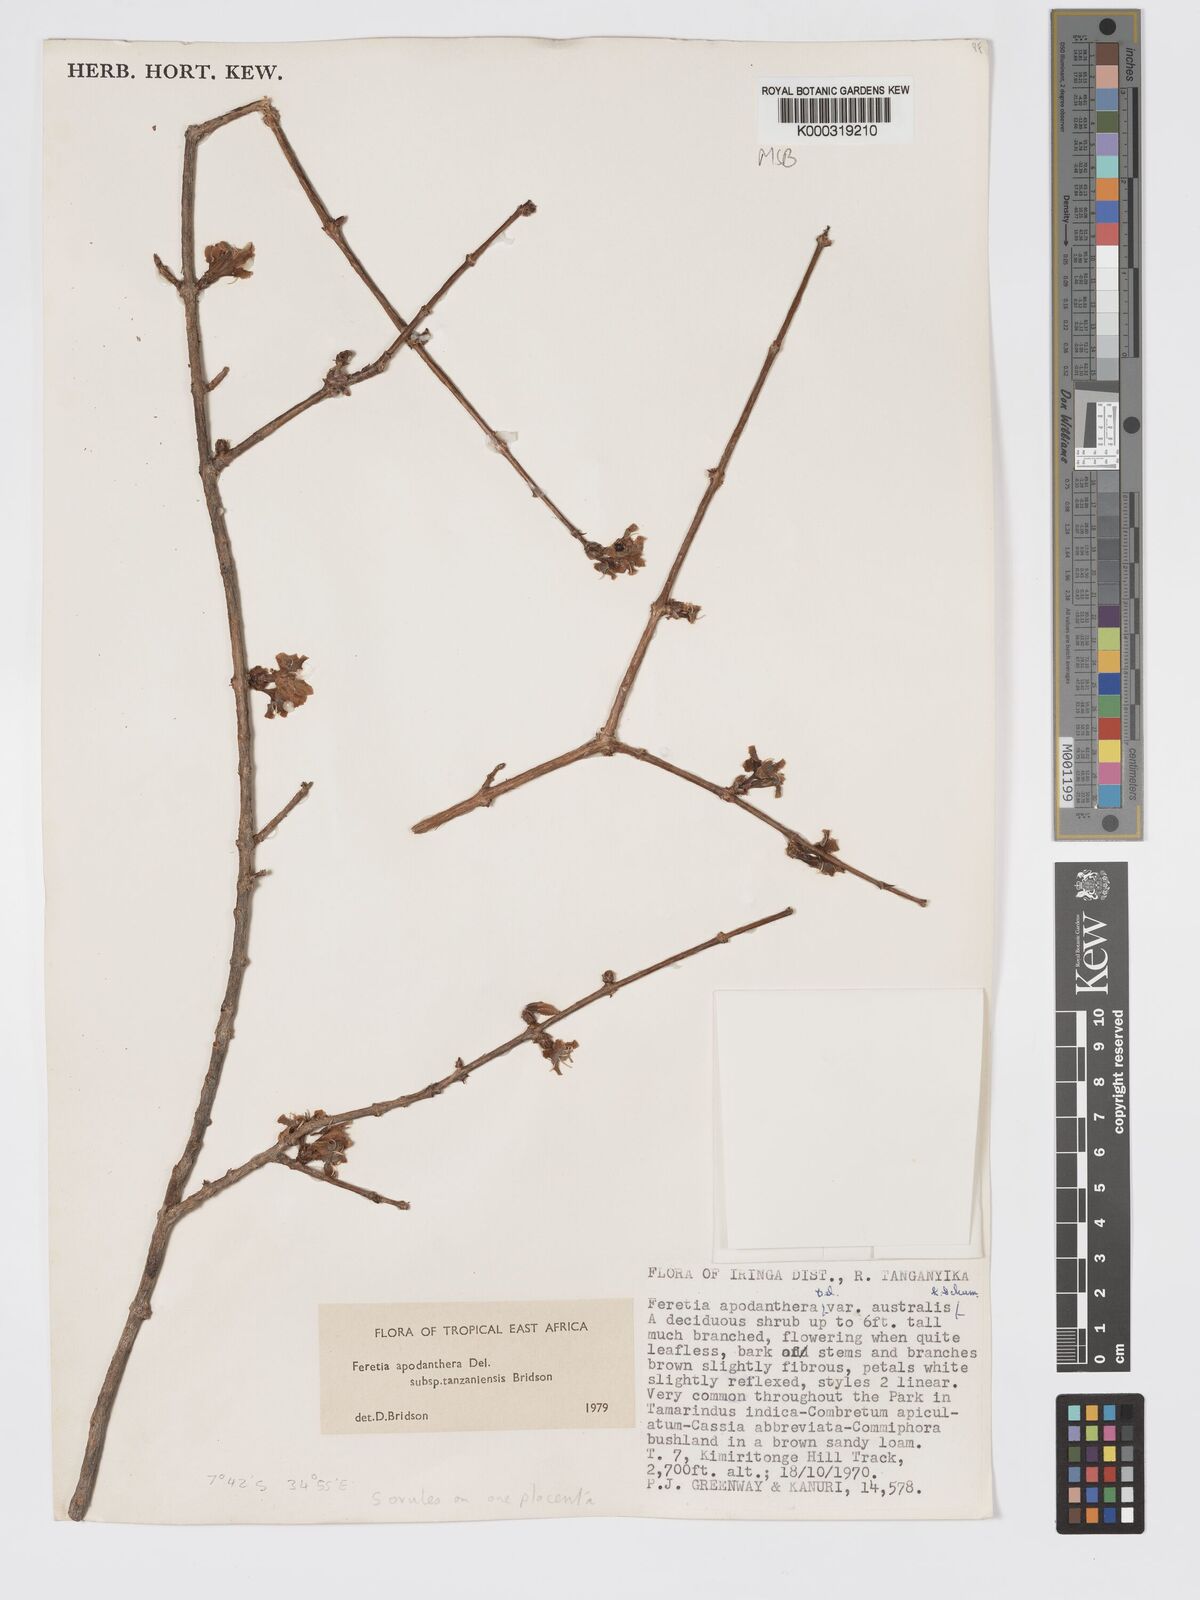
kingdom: Plantae
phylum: Tracheophyta
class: Magnoliopsida
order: Gentianales
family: Rubiaceae
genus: Feretia
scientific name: Feretia apodanthera
